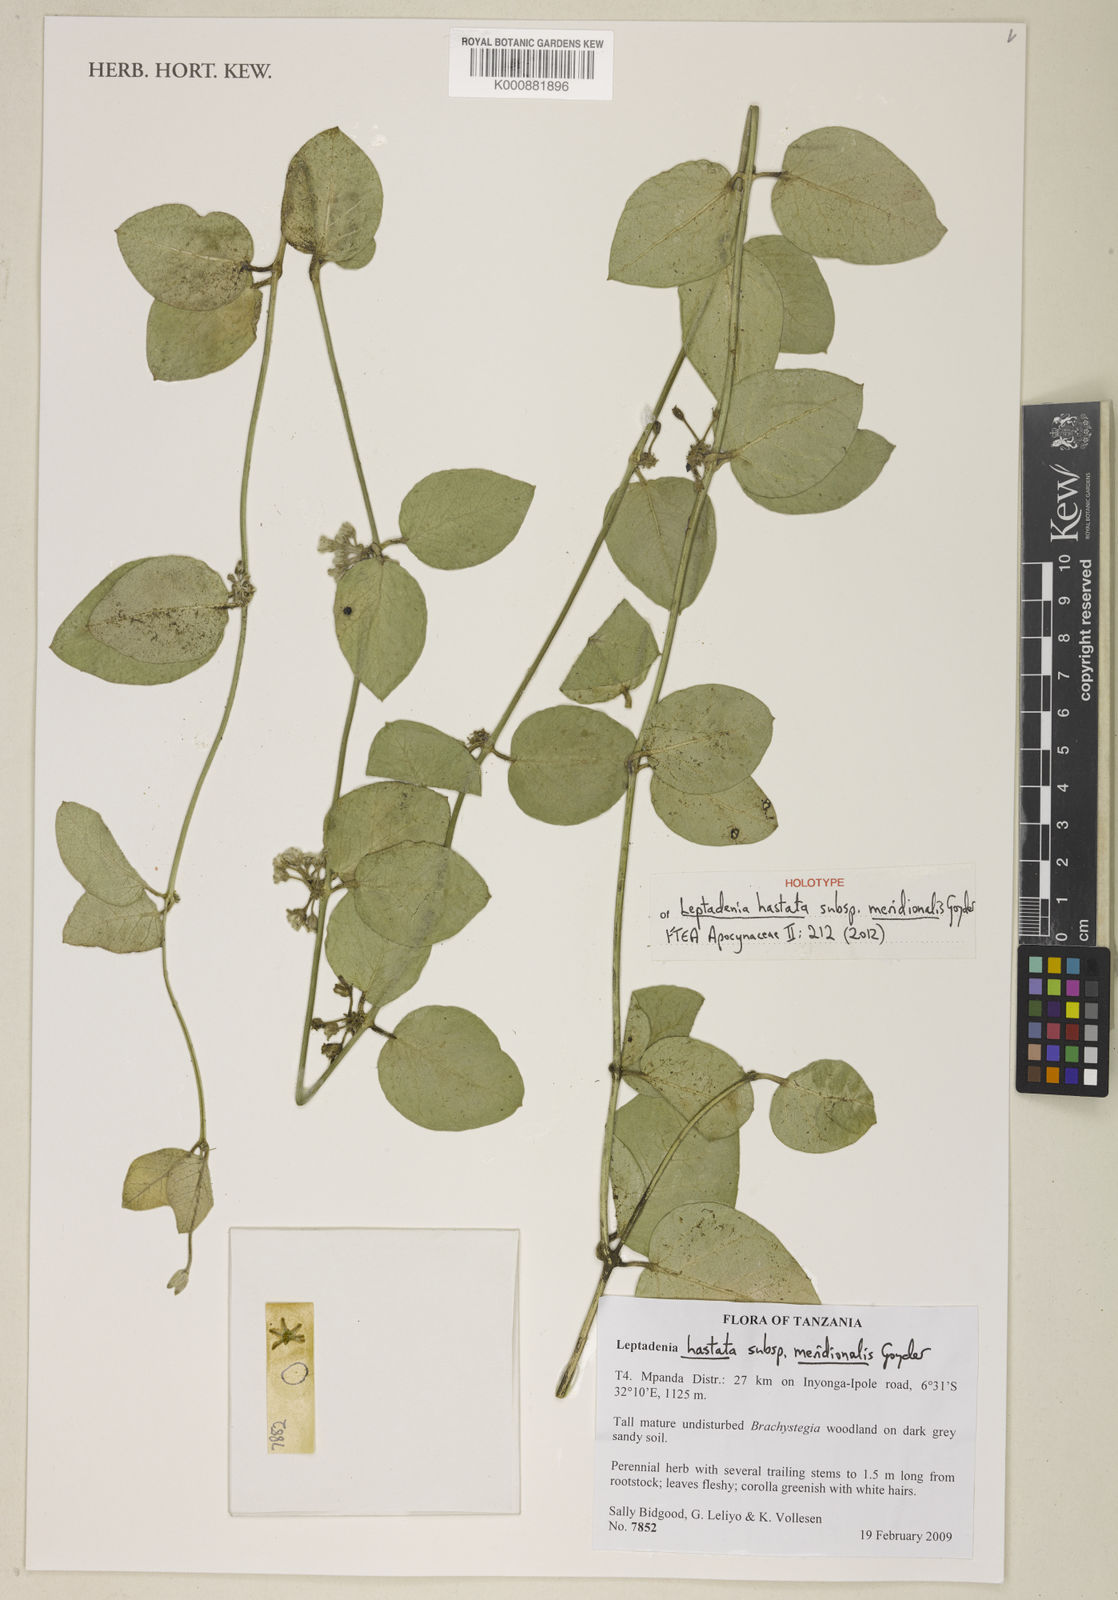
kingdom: Plantae
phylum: Tracheophyta
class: Magnoliopsida
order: Gentianales
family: Apocynaceae
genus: Leptadenia
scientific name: Leptadenia lanceolata
